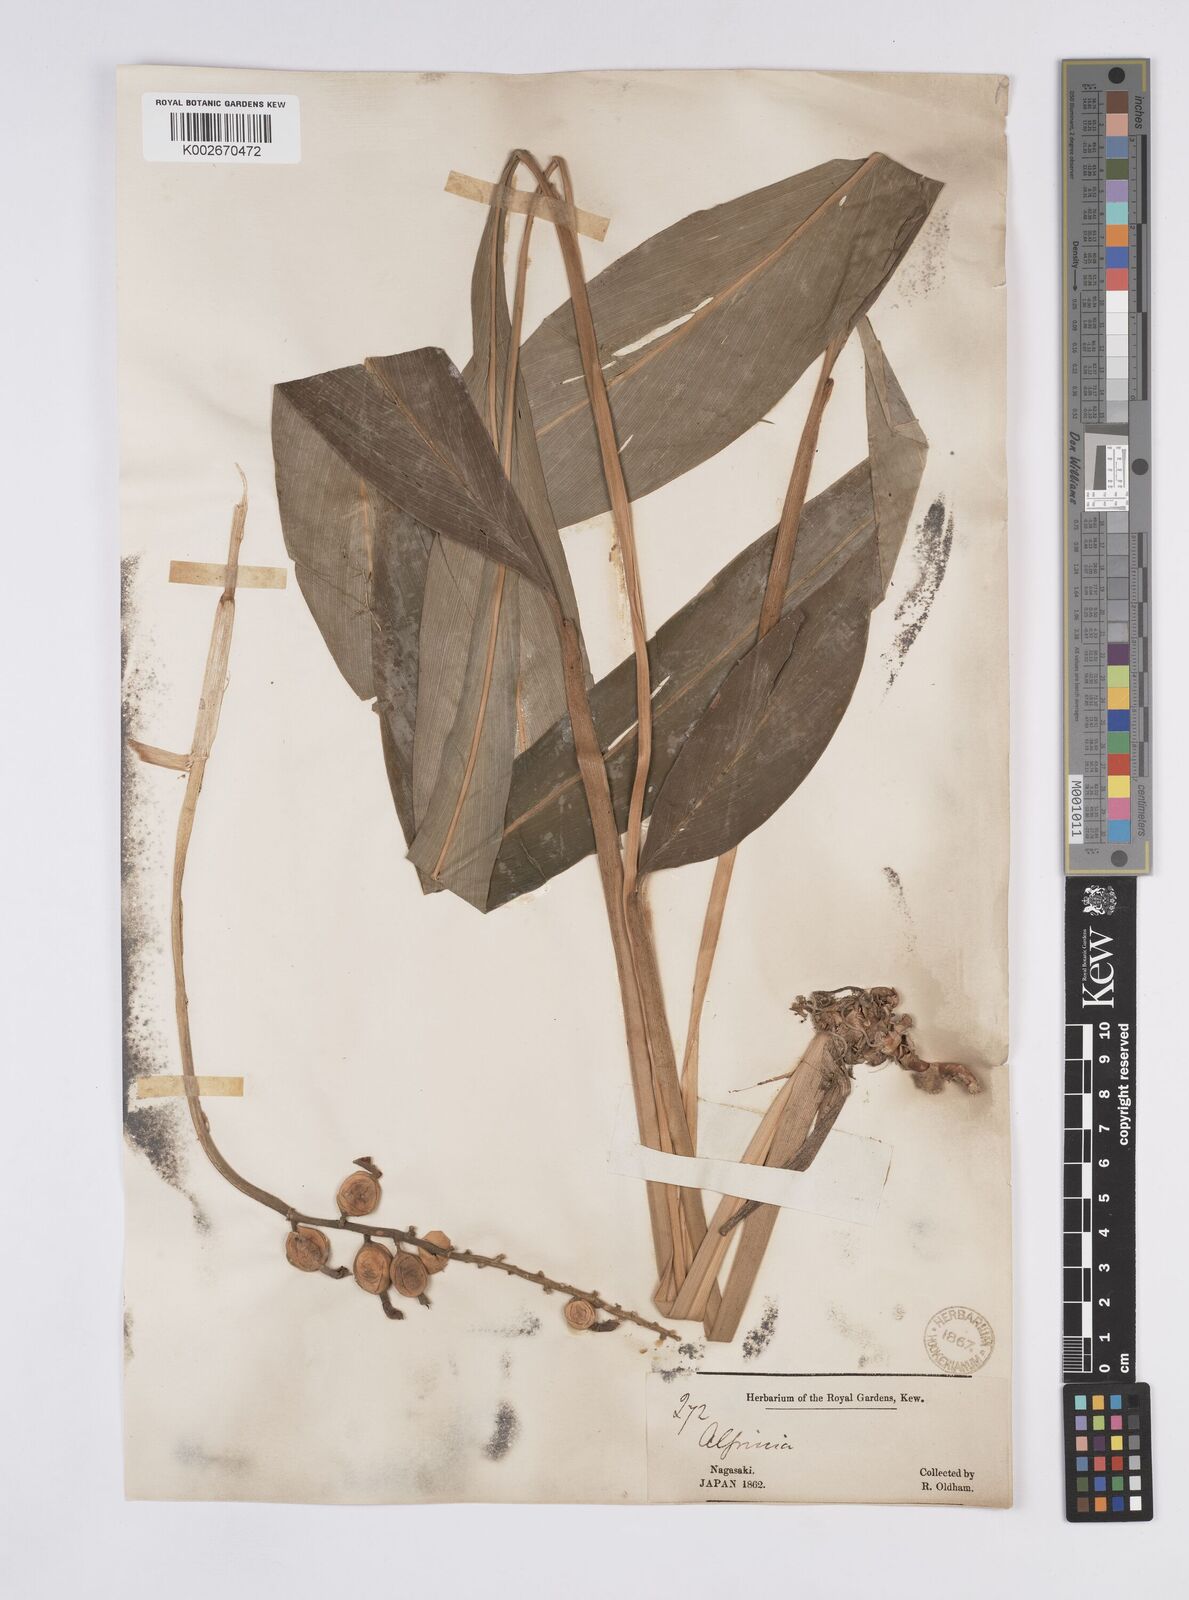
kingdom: Plantae
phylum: Tracheophyta
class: Liliopsida
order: Zingiberales
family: Zingiberaceae
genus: Alpinia
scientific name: Alpinia japonica
